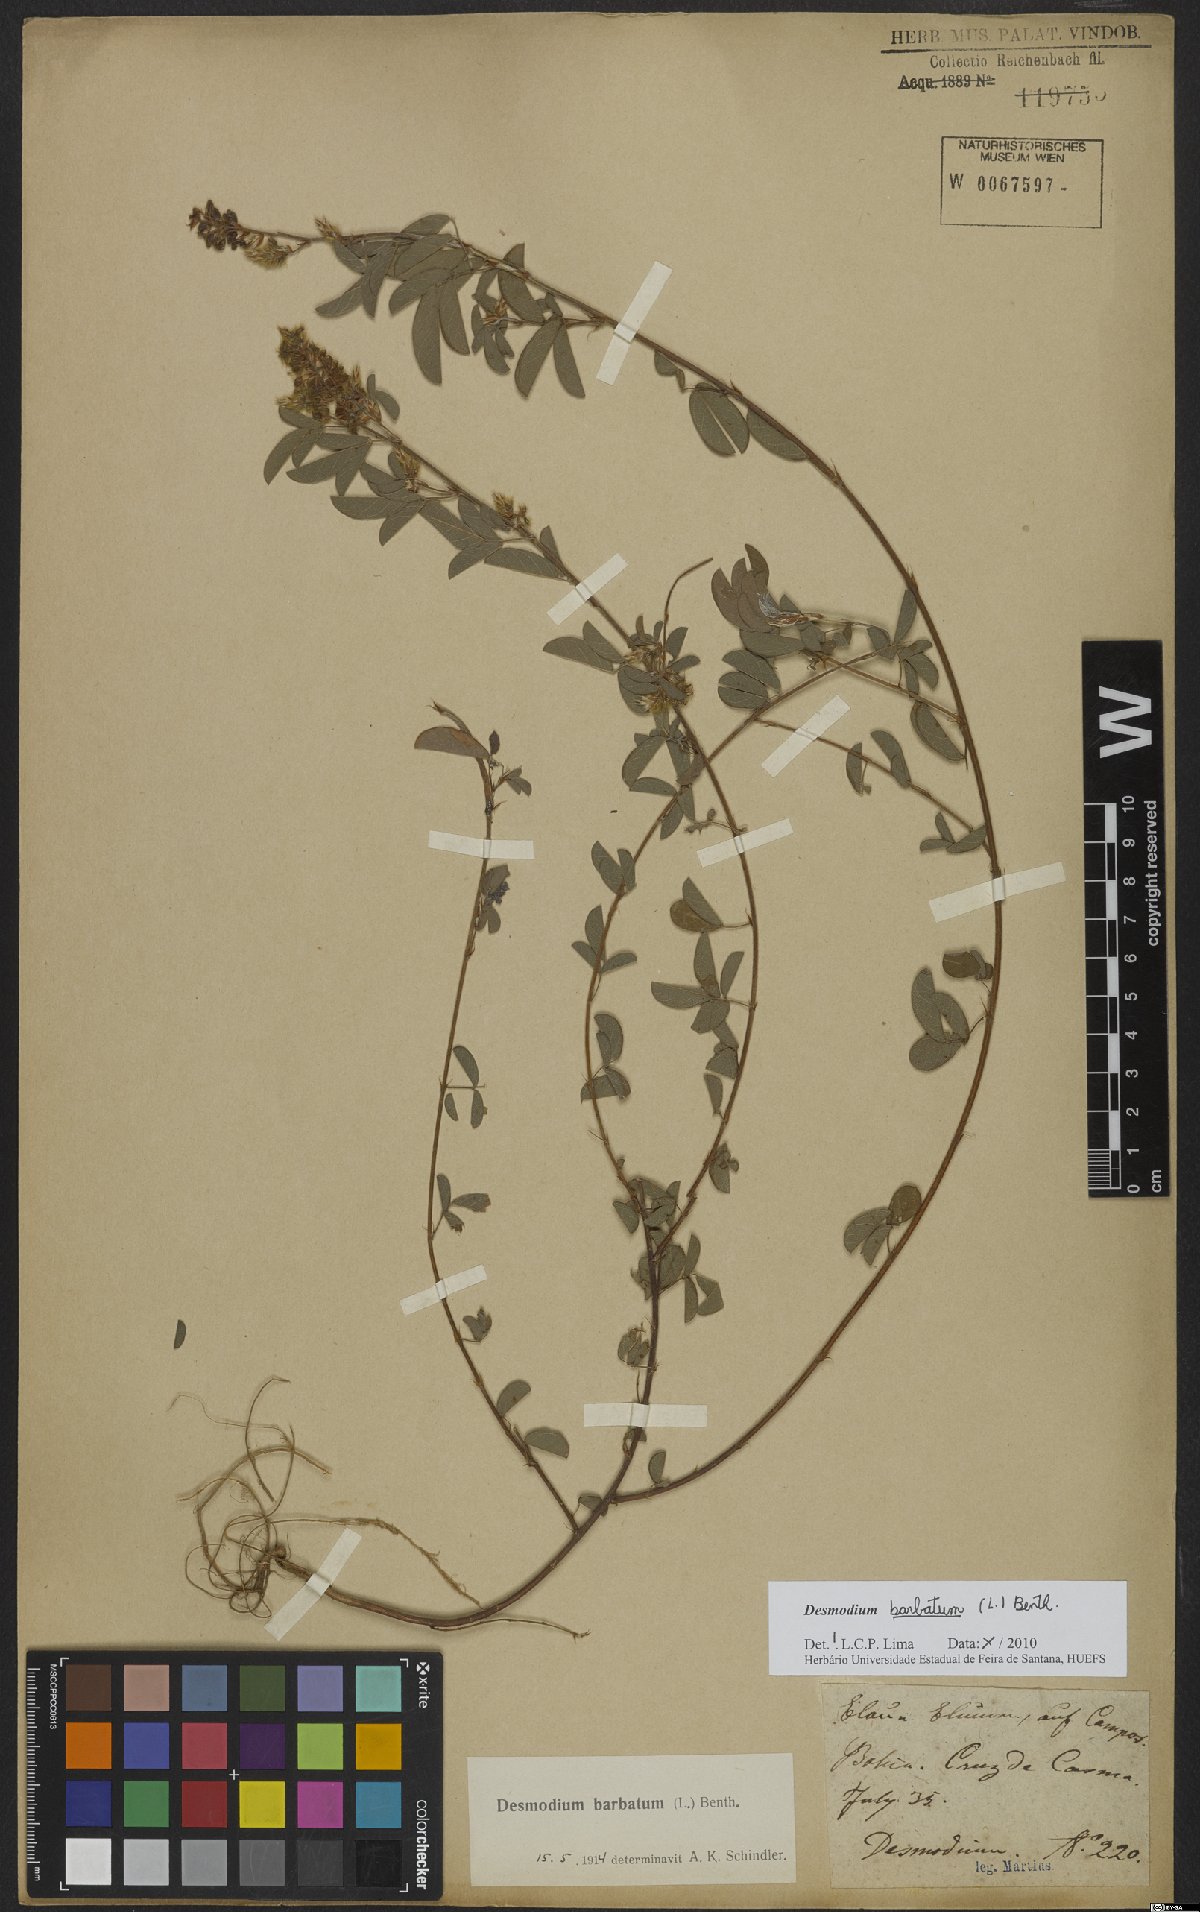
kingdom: Plantae
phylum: Tracheophyta
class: Magnoliopsida
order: Fabales
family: Fabaceae
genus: Grona
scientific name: Grona barbata
